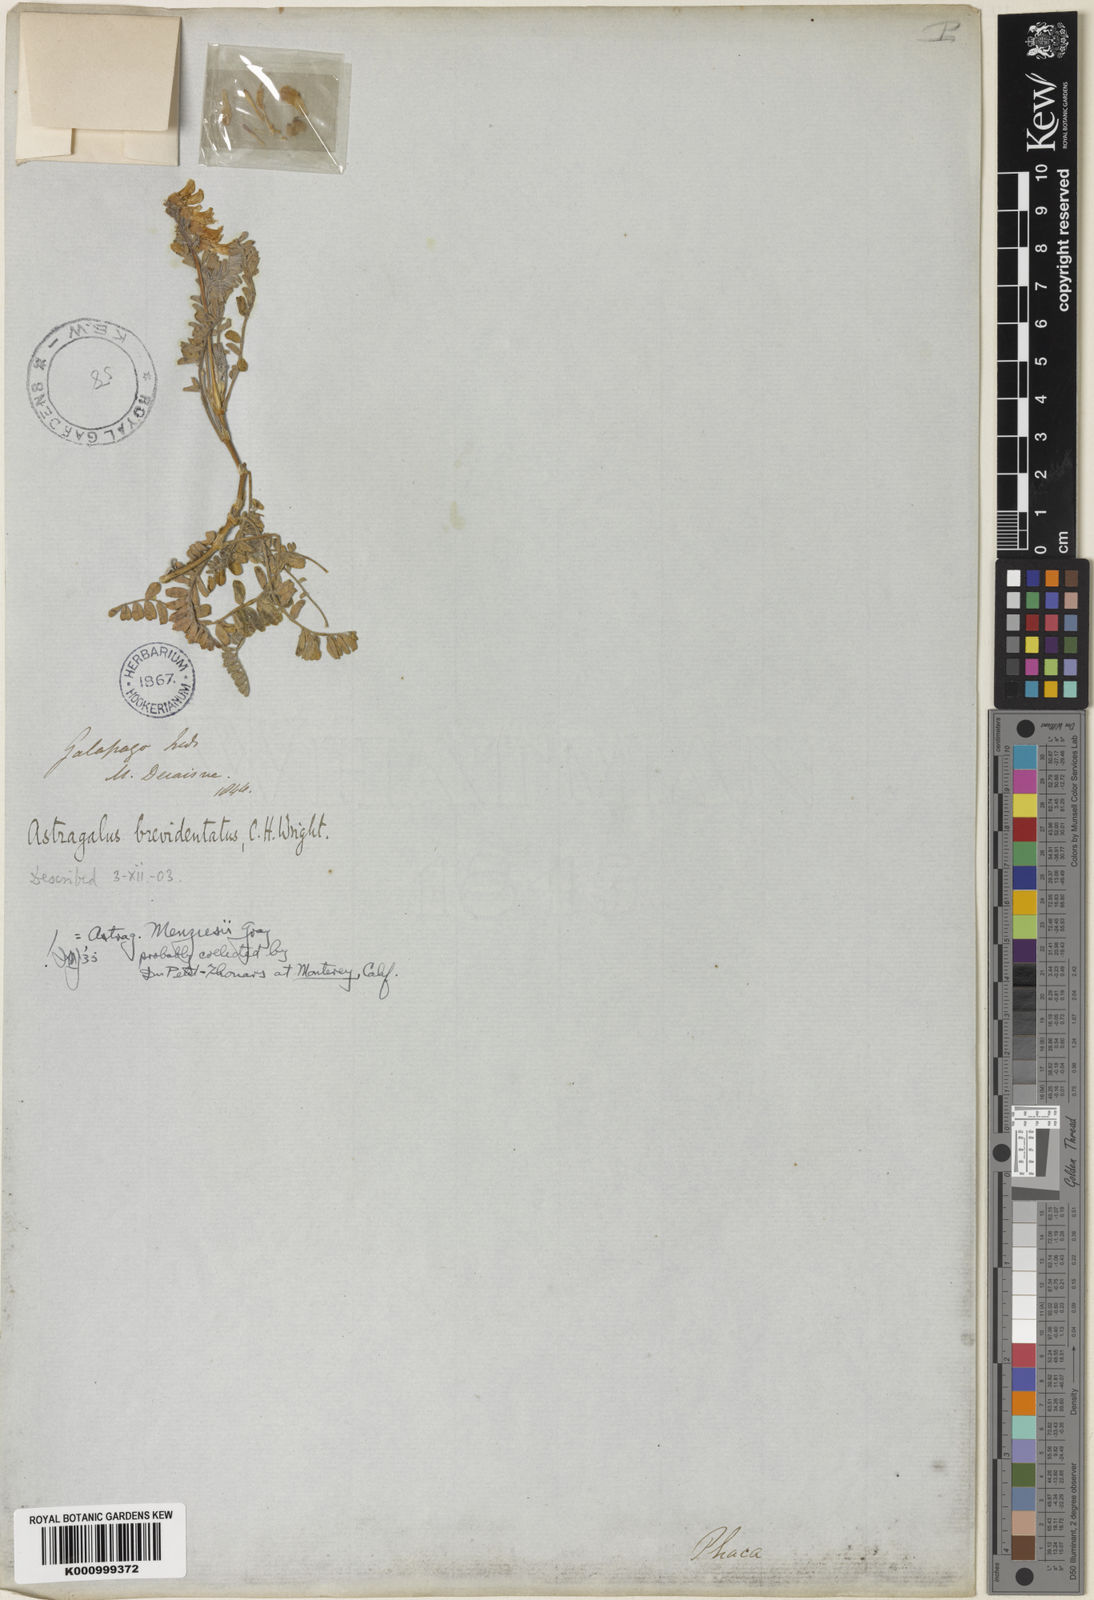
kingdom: Plantae
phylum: Tracheophyta
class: Magnoliopsida
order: Fabales
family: Fabaceae
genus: Astragalus
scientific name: Astragalus nuttallii
